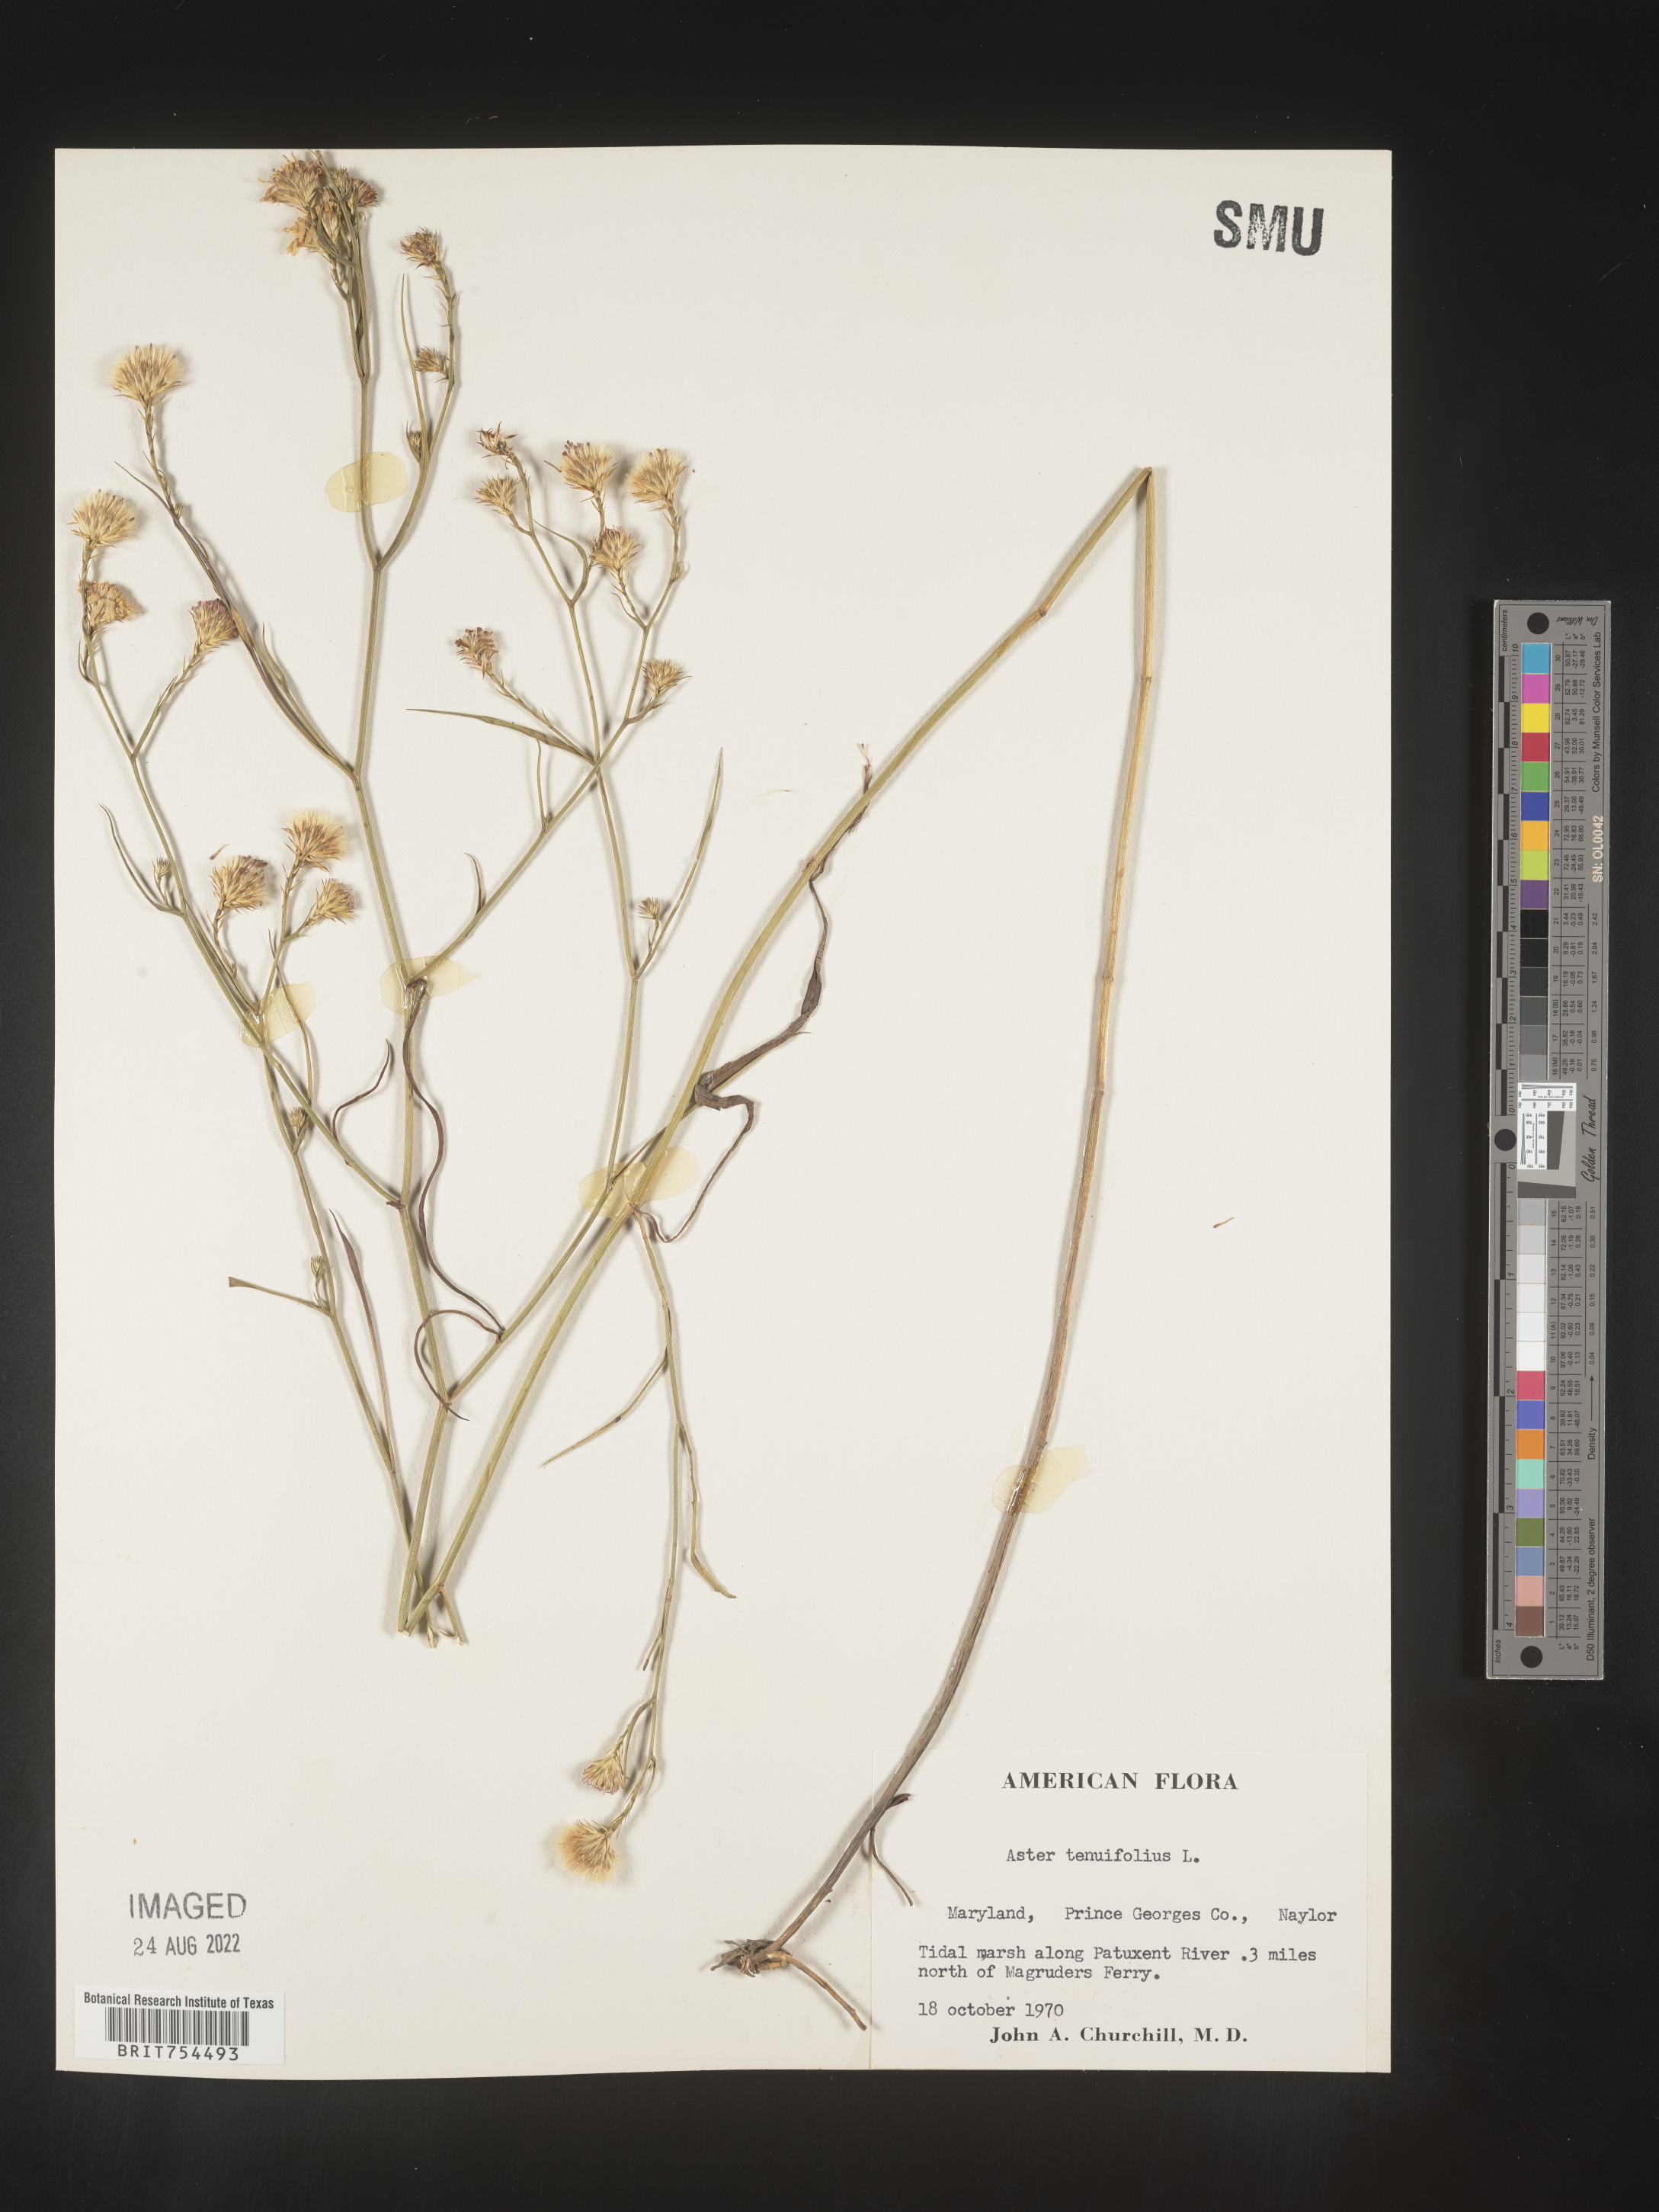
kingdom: Plantae
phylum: Tracheophyta
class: Magnoliopsida
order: Asterales
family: Asteraceae
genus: Symphyotrichum
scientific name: Symphyotrichum tenuifolium
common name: Perennial salt-marsh aster
